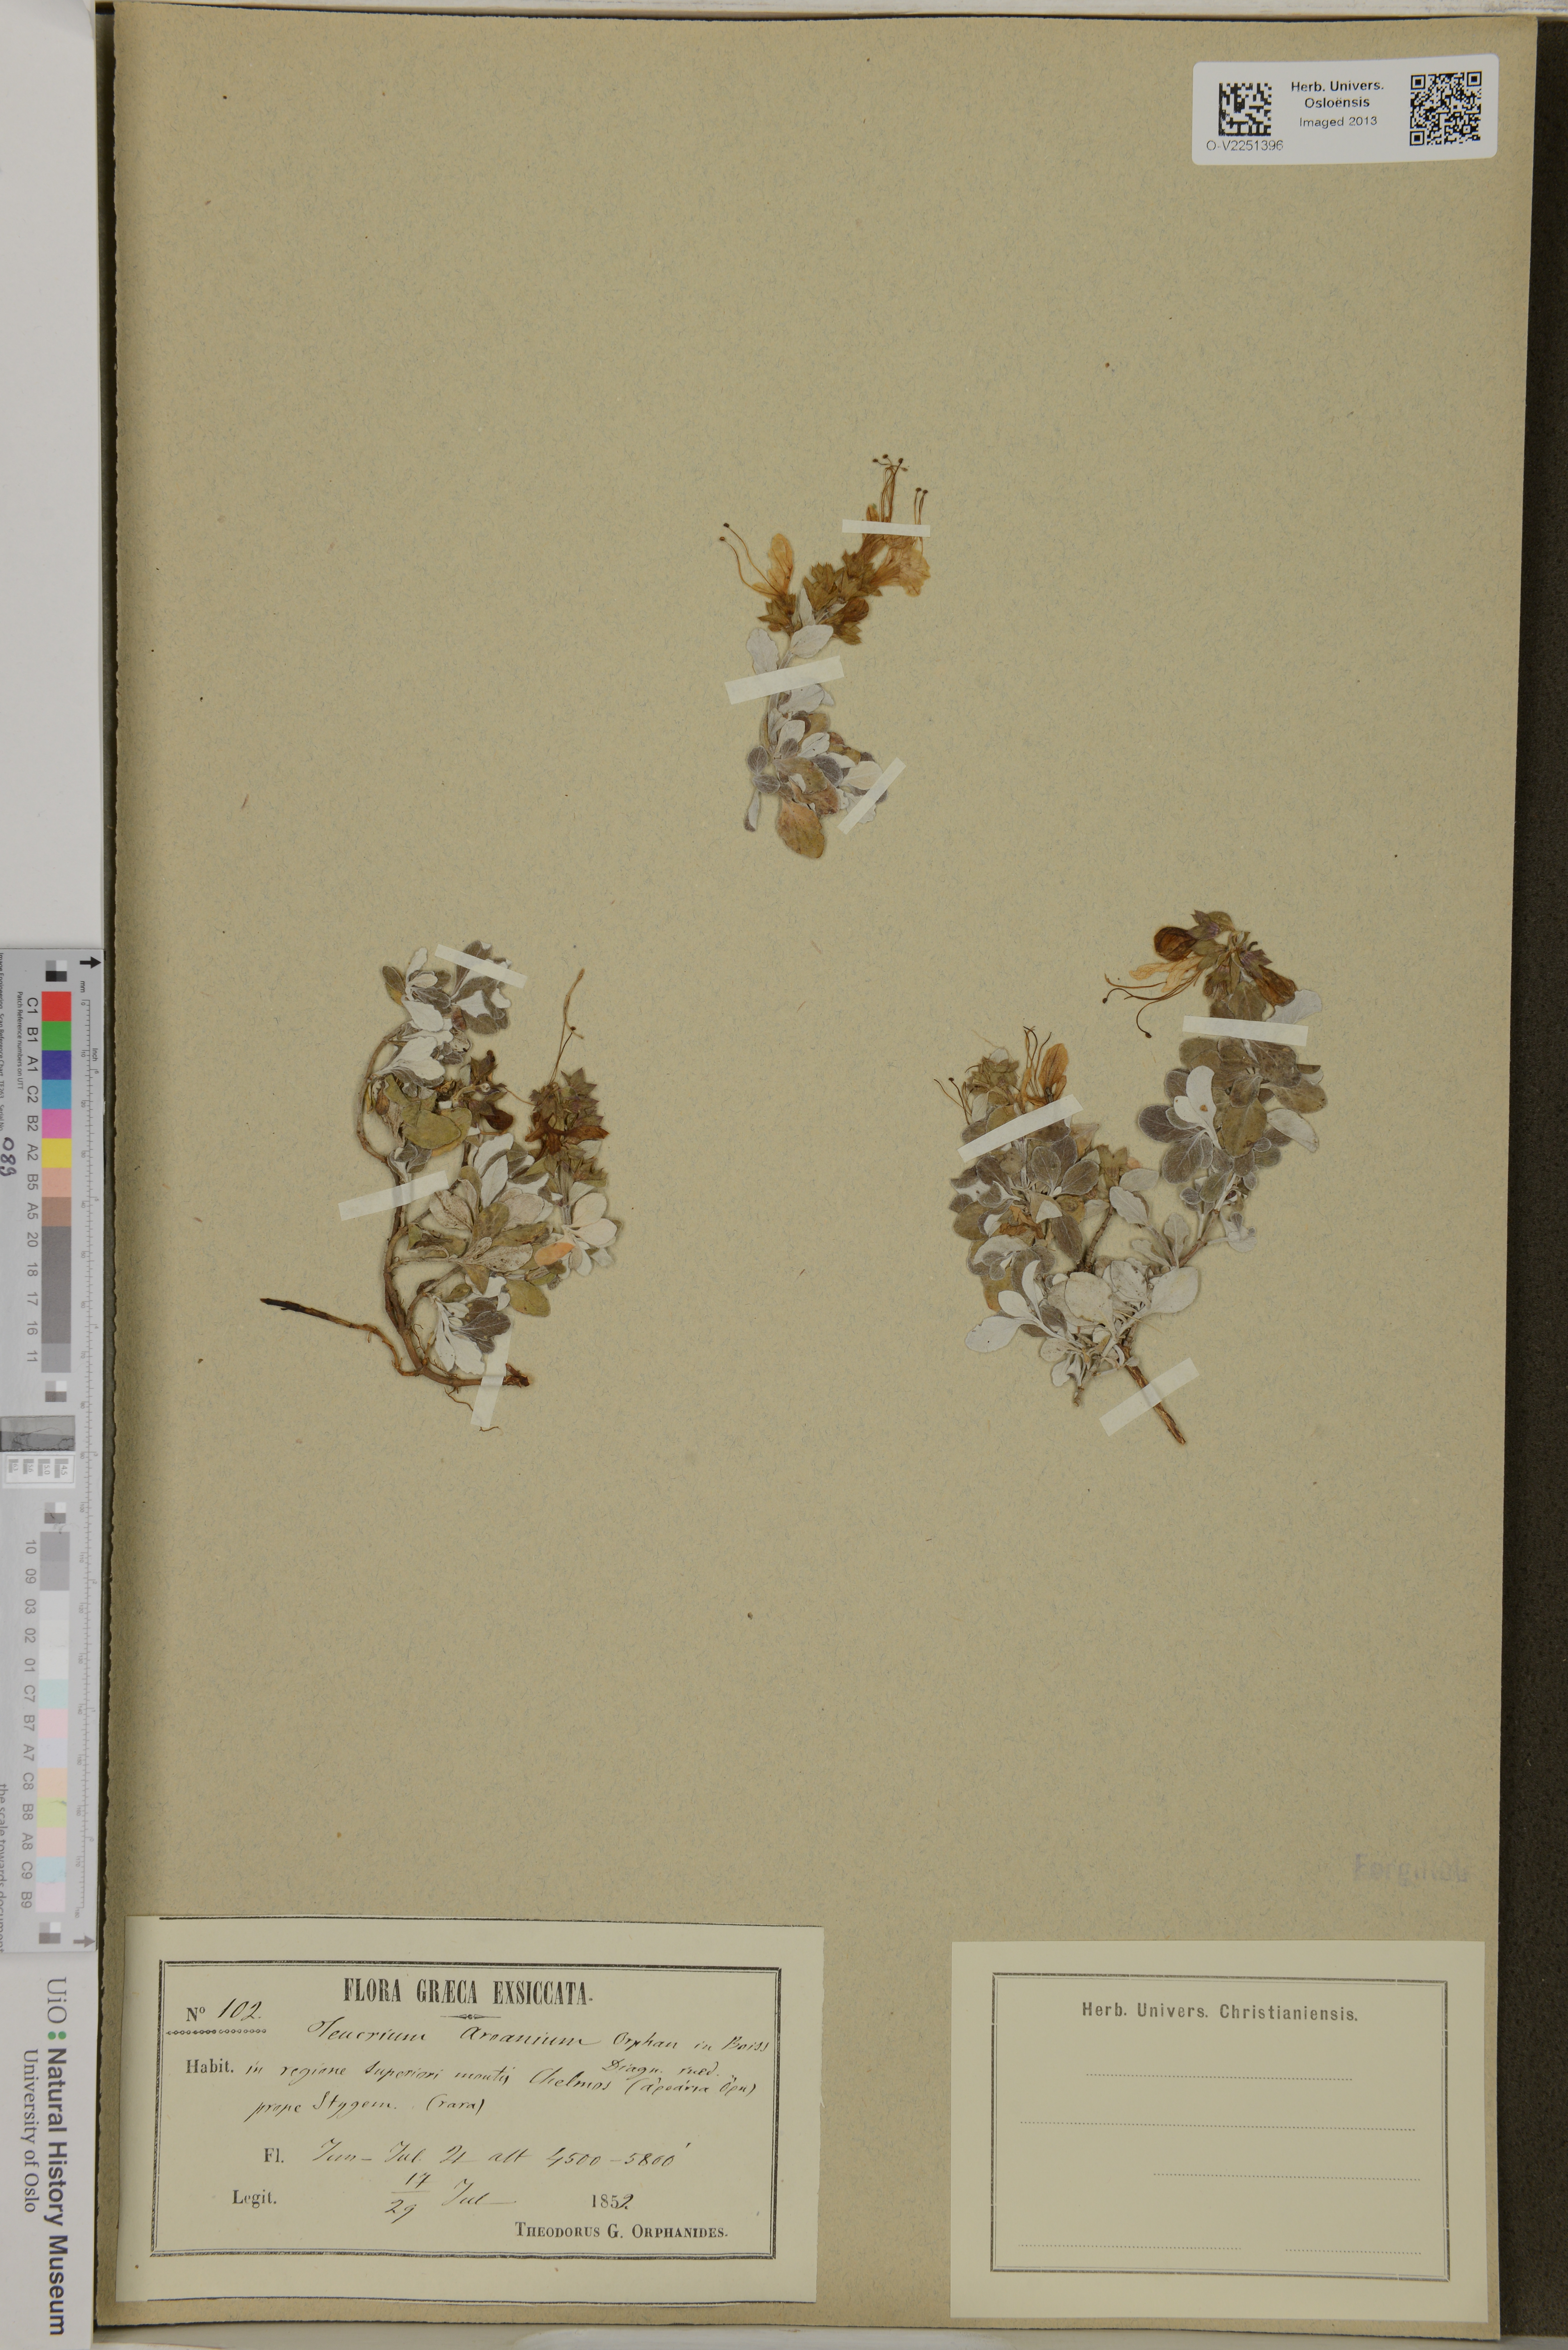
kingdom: Plantae
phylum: Tracheophyta
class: Magnoliopsida
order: Lamiales
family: Lamiaceae
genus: Teucrium
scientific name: Teucrium aureum
